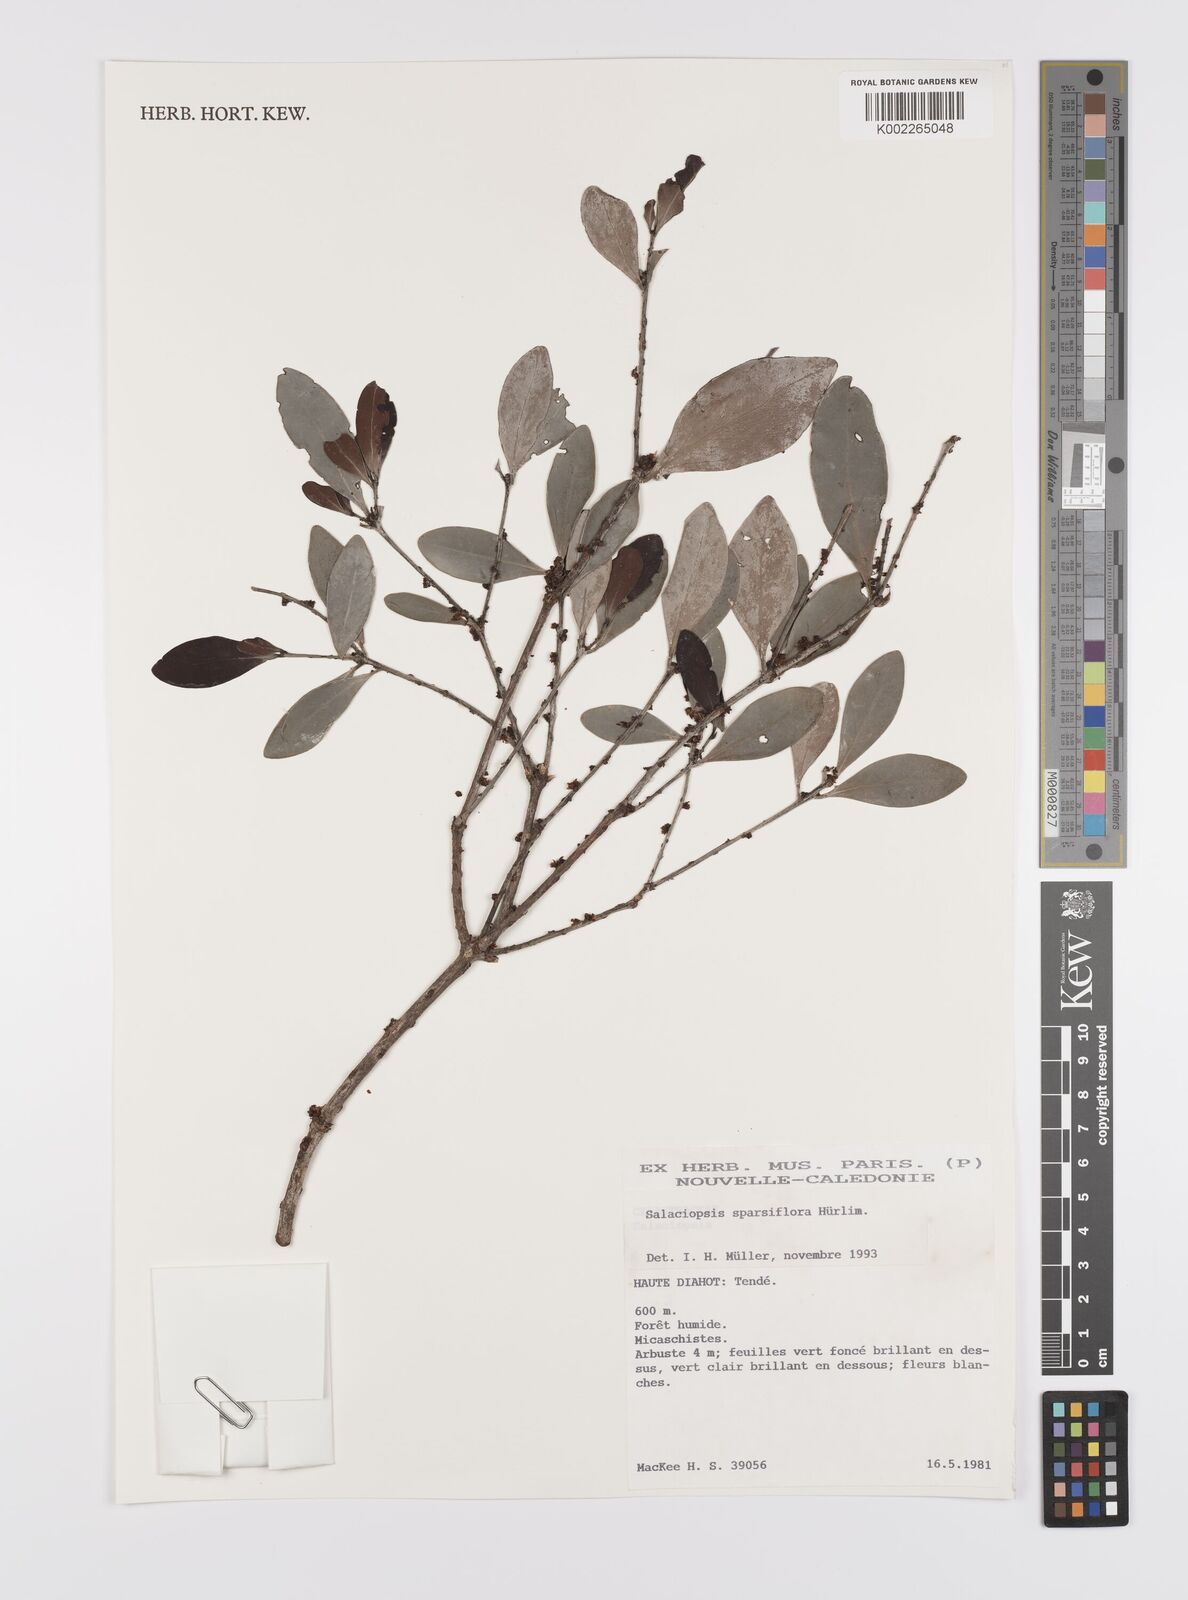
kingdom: Plantae
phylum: Tracheophyta
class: Magnoliopsida
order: Celastrales
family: Celastraceae
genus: Salaciopsis
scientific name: Salaciopsis sparsiflora
